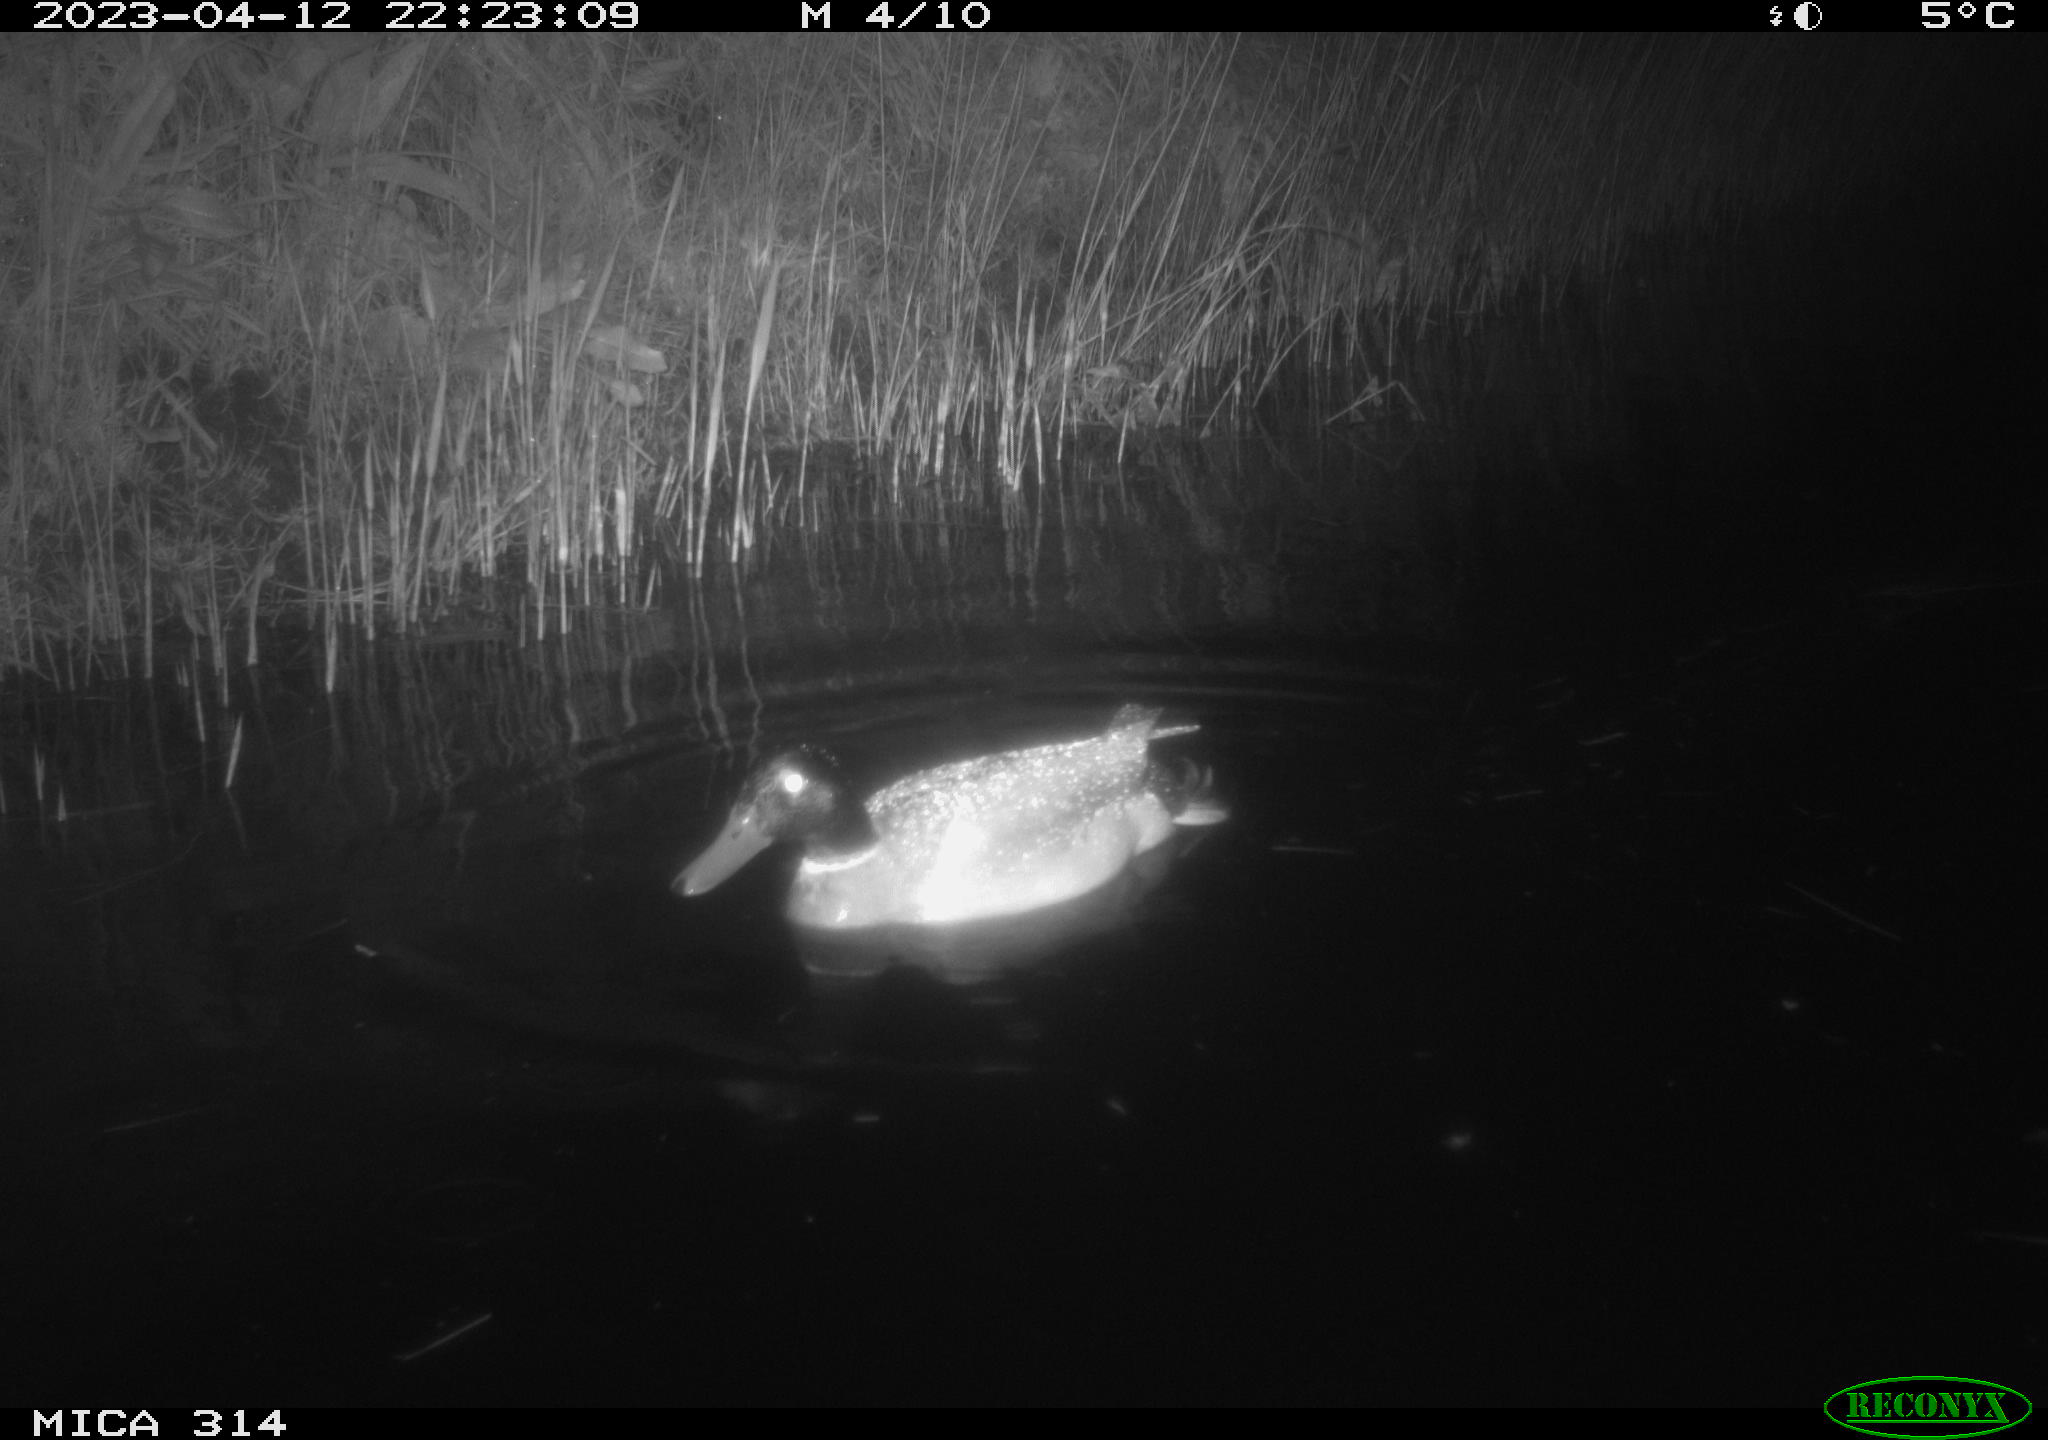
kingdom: Animalia
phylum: Chordata
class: Aves
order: Anseriformes
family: Anatidae
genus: Anas
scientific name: Anas
